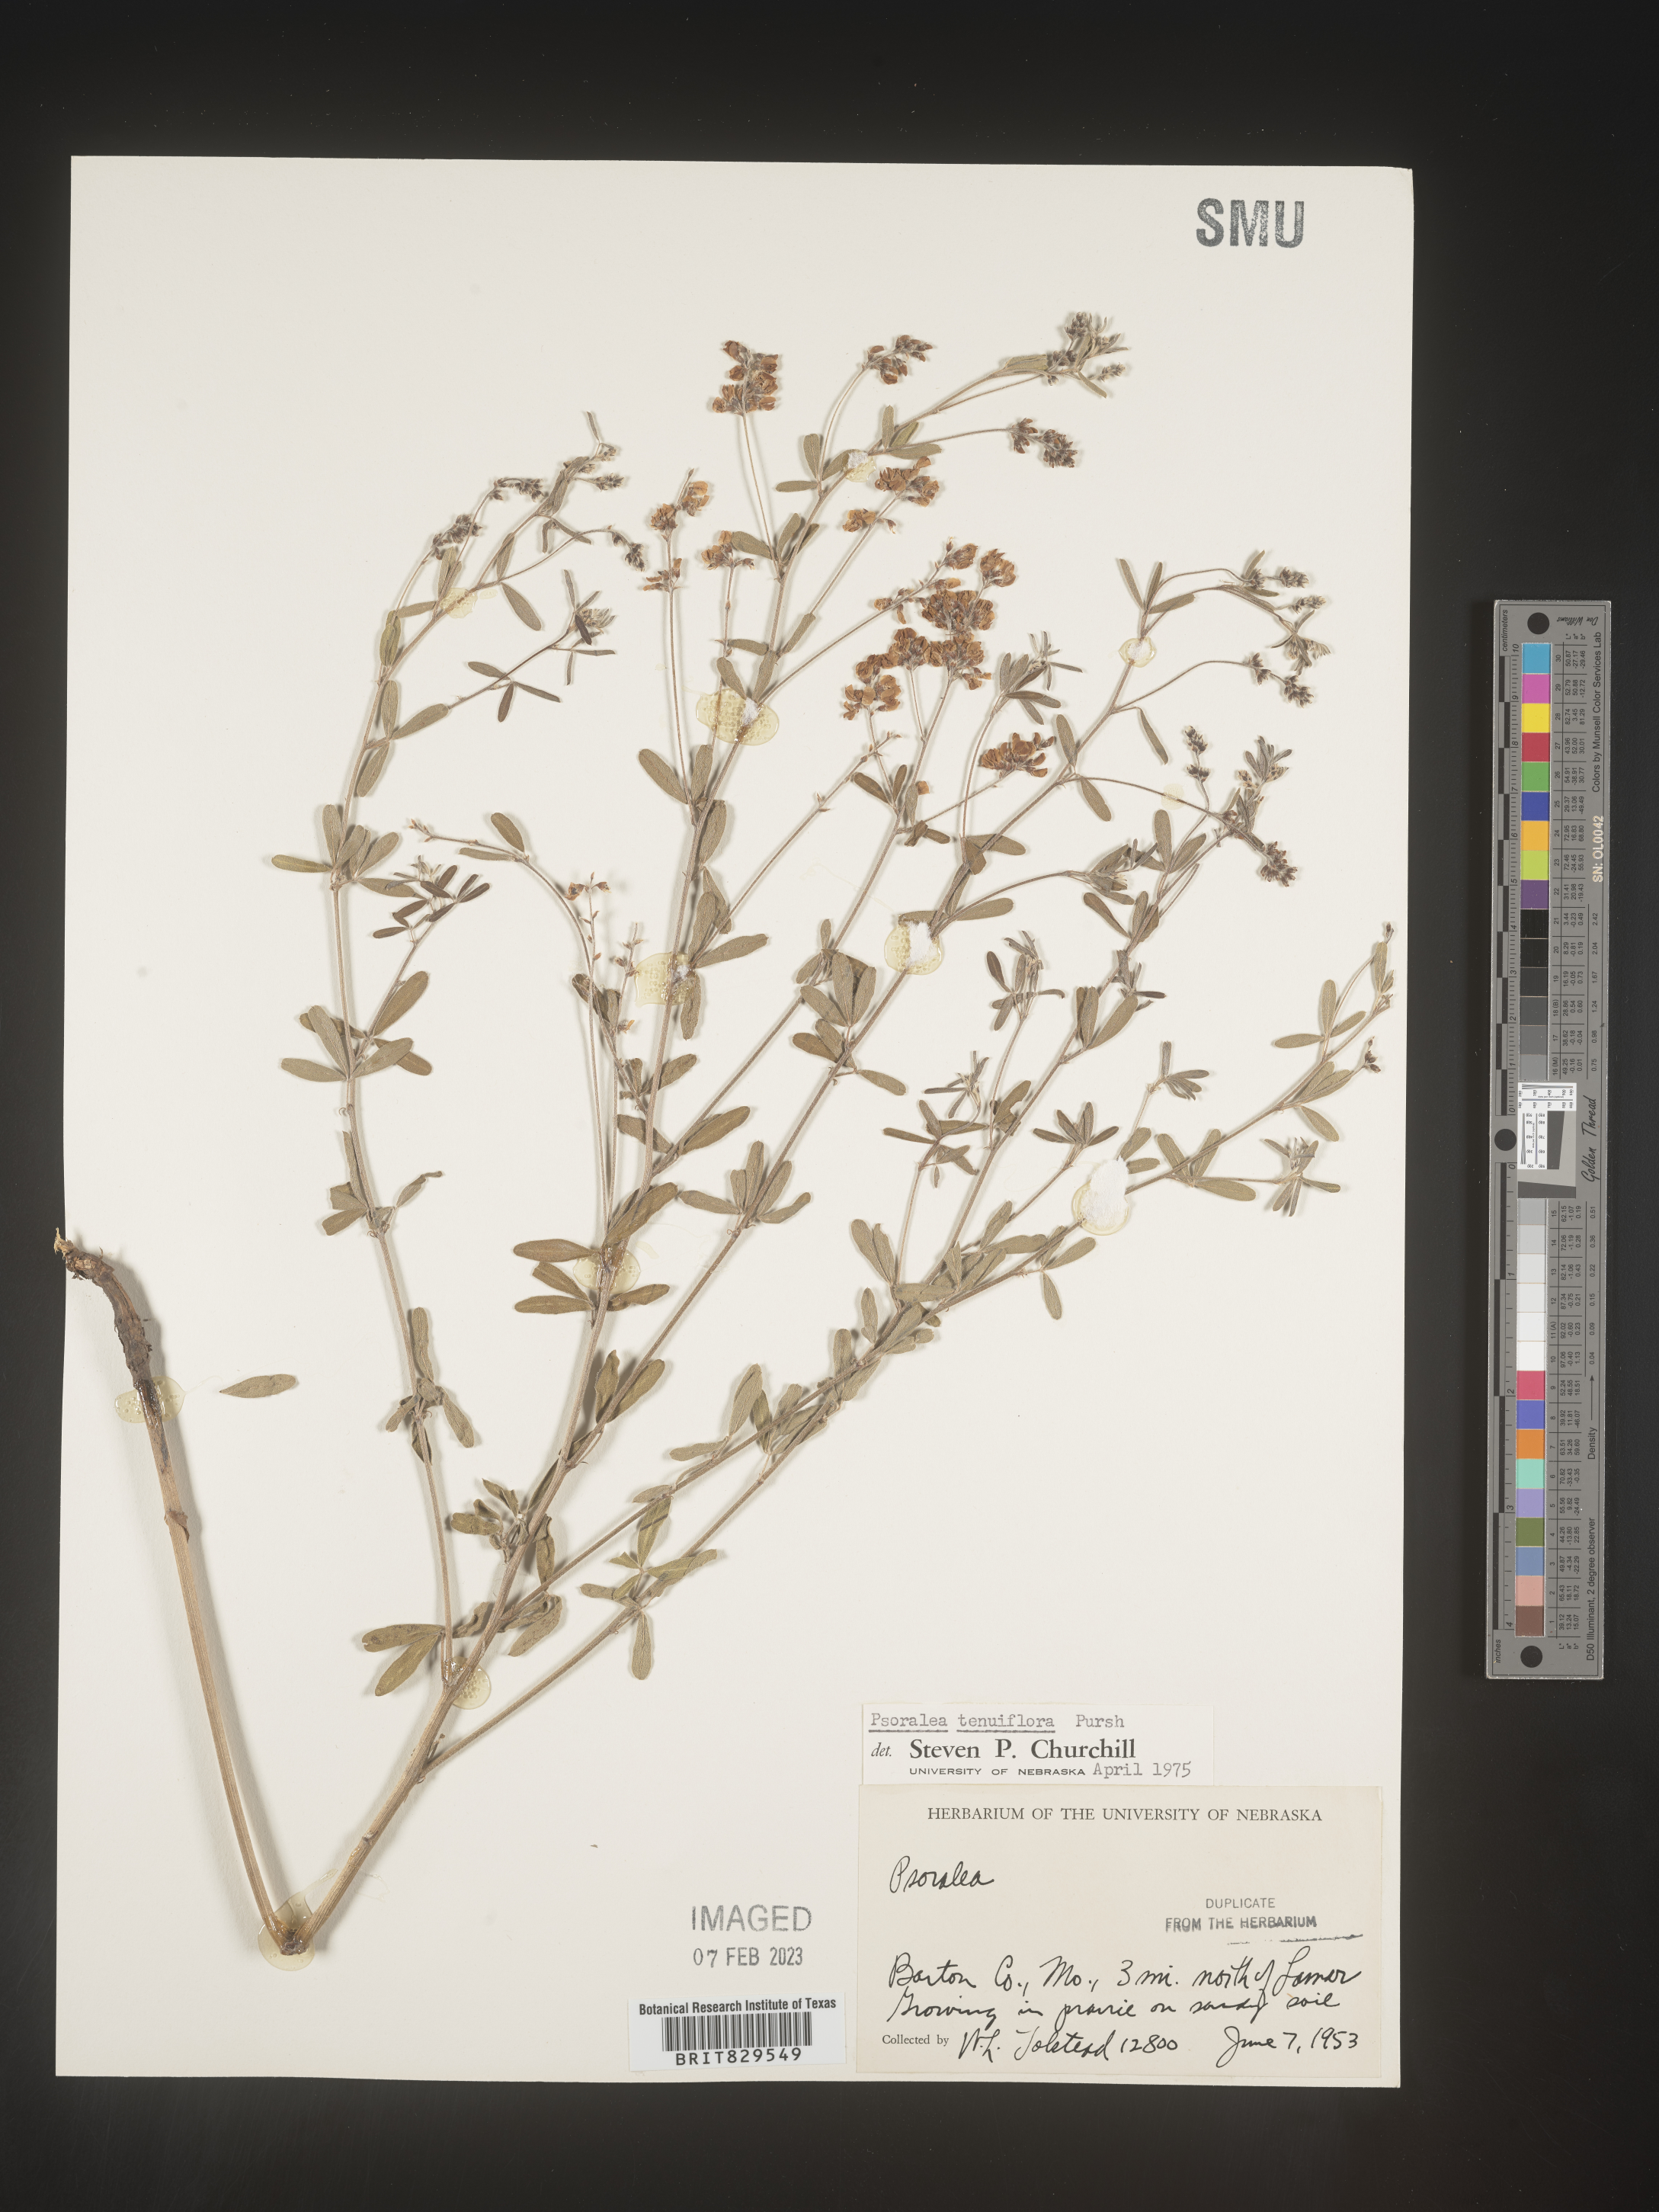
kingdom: Plantae
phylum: Tracheophyta
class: Magnoliopsida
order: Fabales
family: Fabaceae
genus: Pediomelum
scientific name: Pediomelum tenuiflorum
